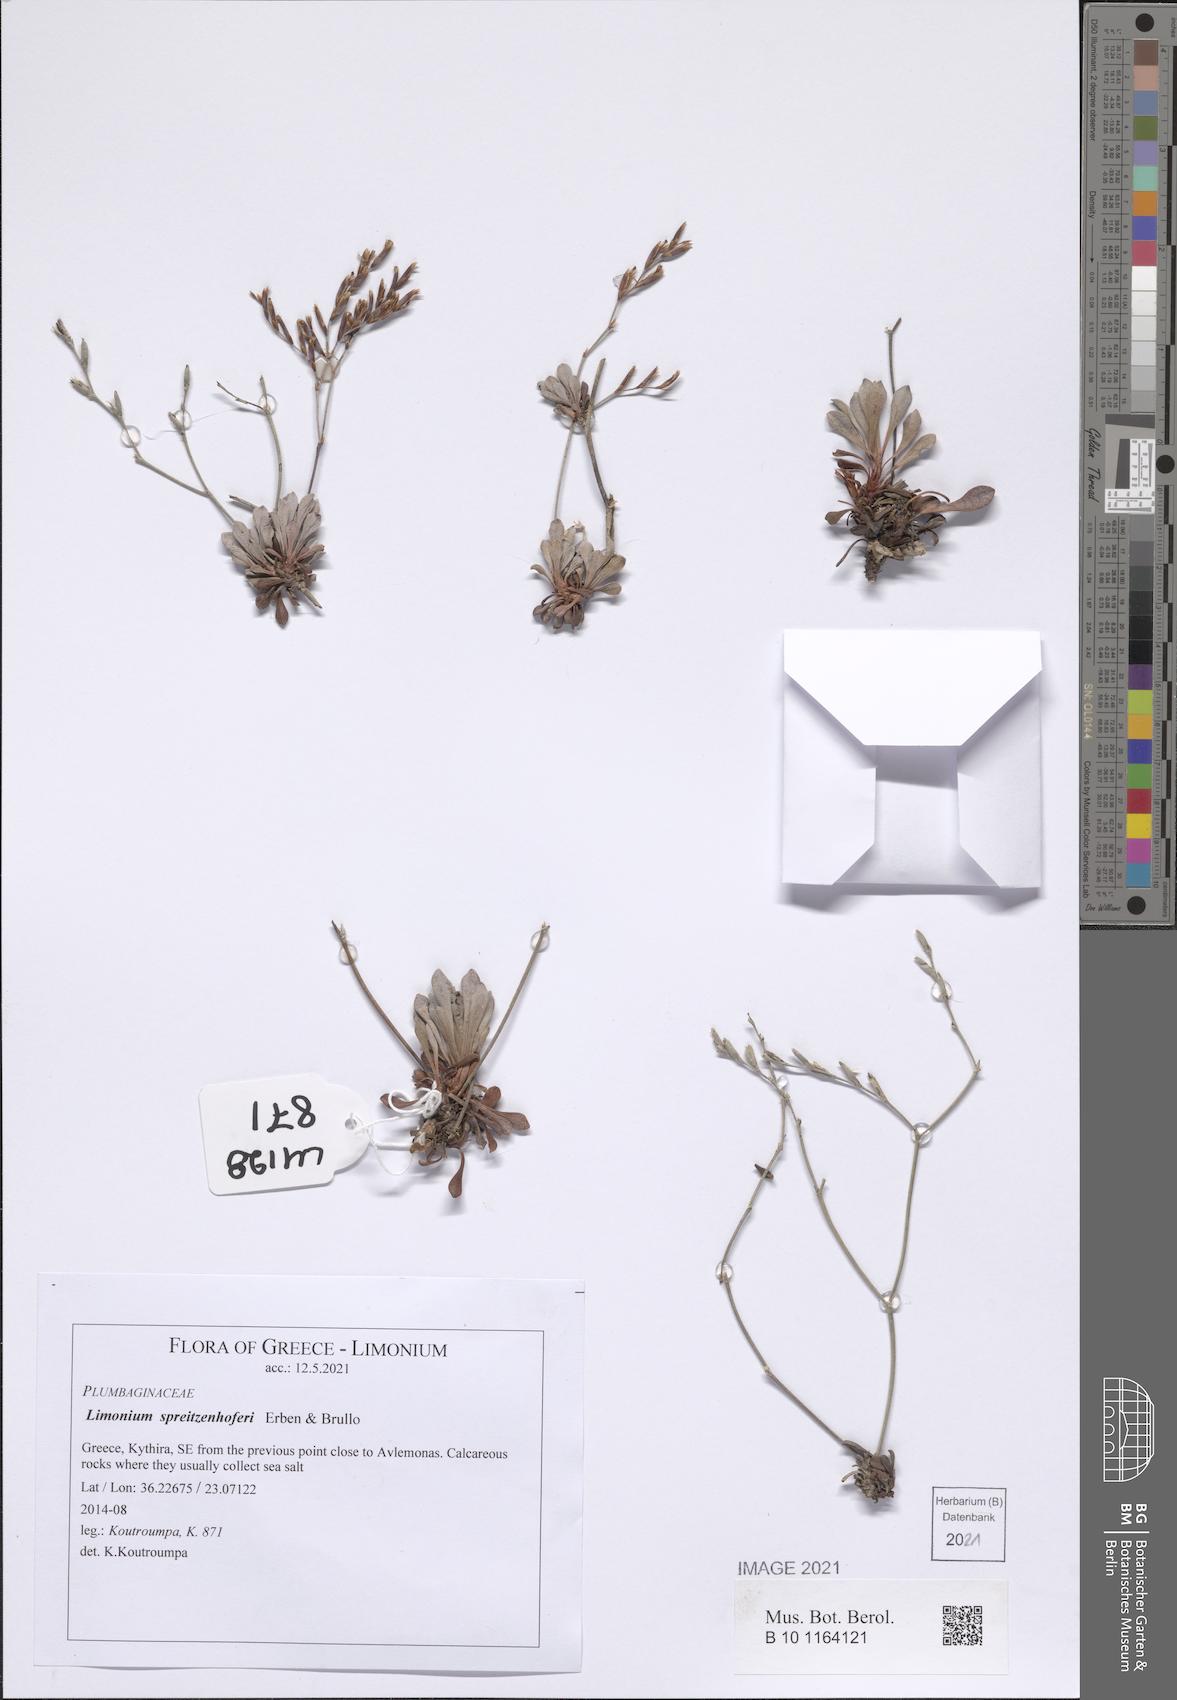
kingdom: Plantae
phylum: Tracheophyta
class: Magnoliopsida
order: Caryophyllales
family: Plumbaginaceae
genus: Limonium
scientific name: Limonium spreitzenhoferi
